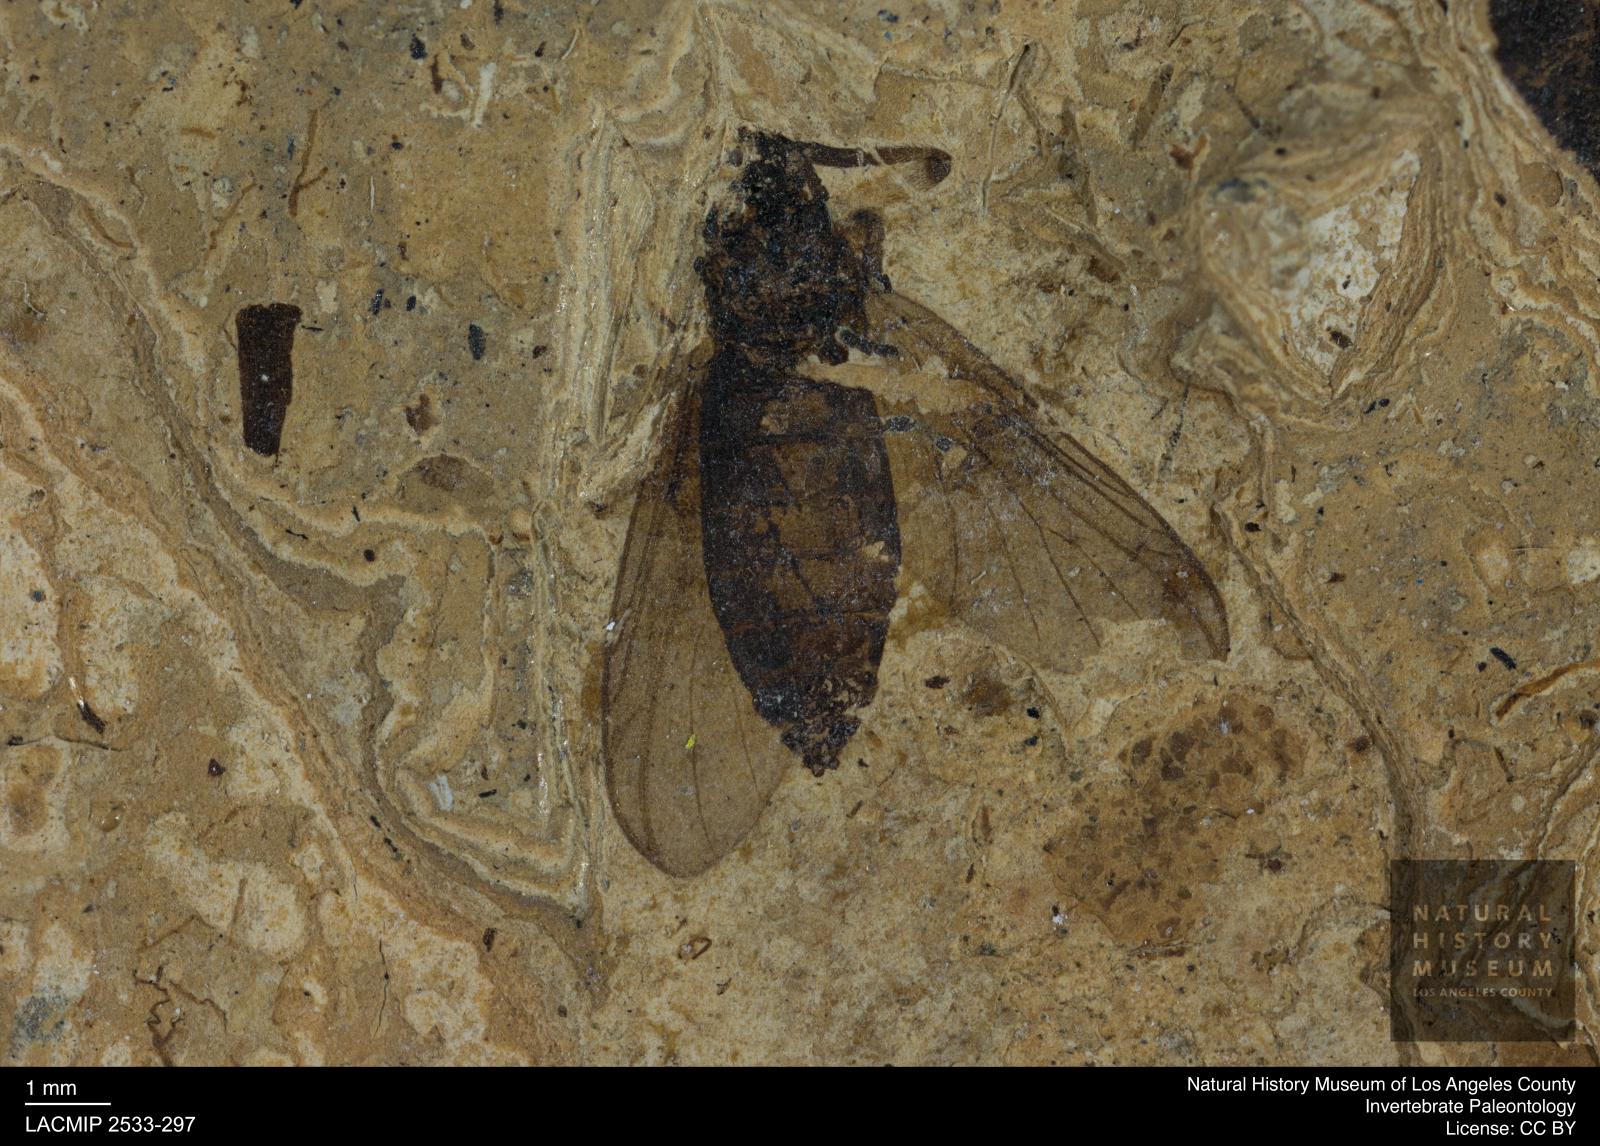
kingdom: Animalia
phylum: Arthropoda
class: Insecta
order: Diptera
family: Bibionidae
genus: Plecia
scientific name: Plecia pinguis
